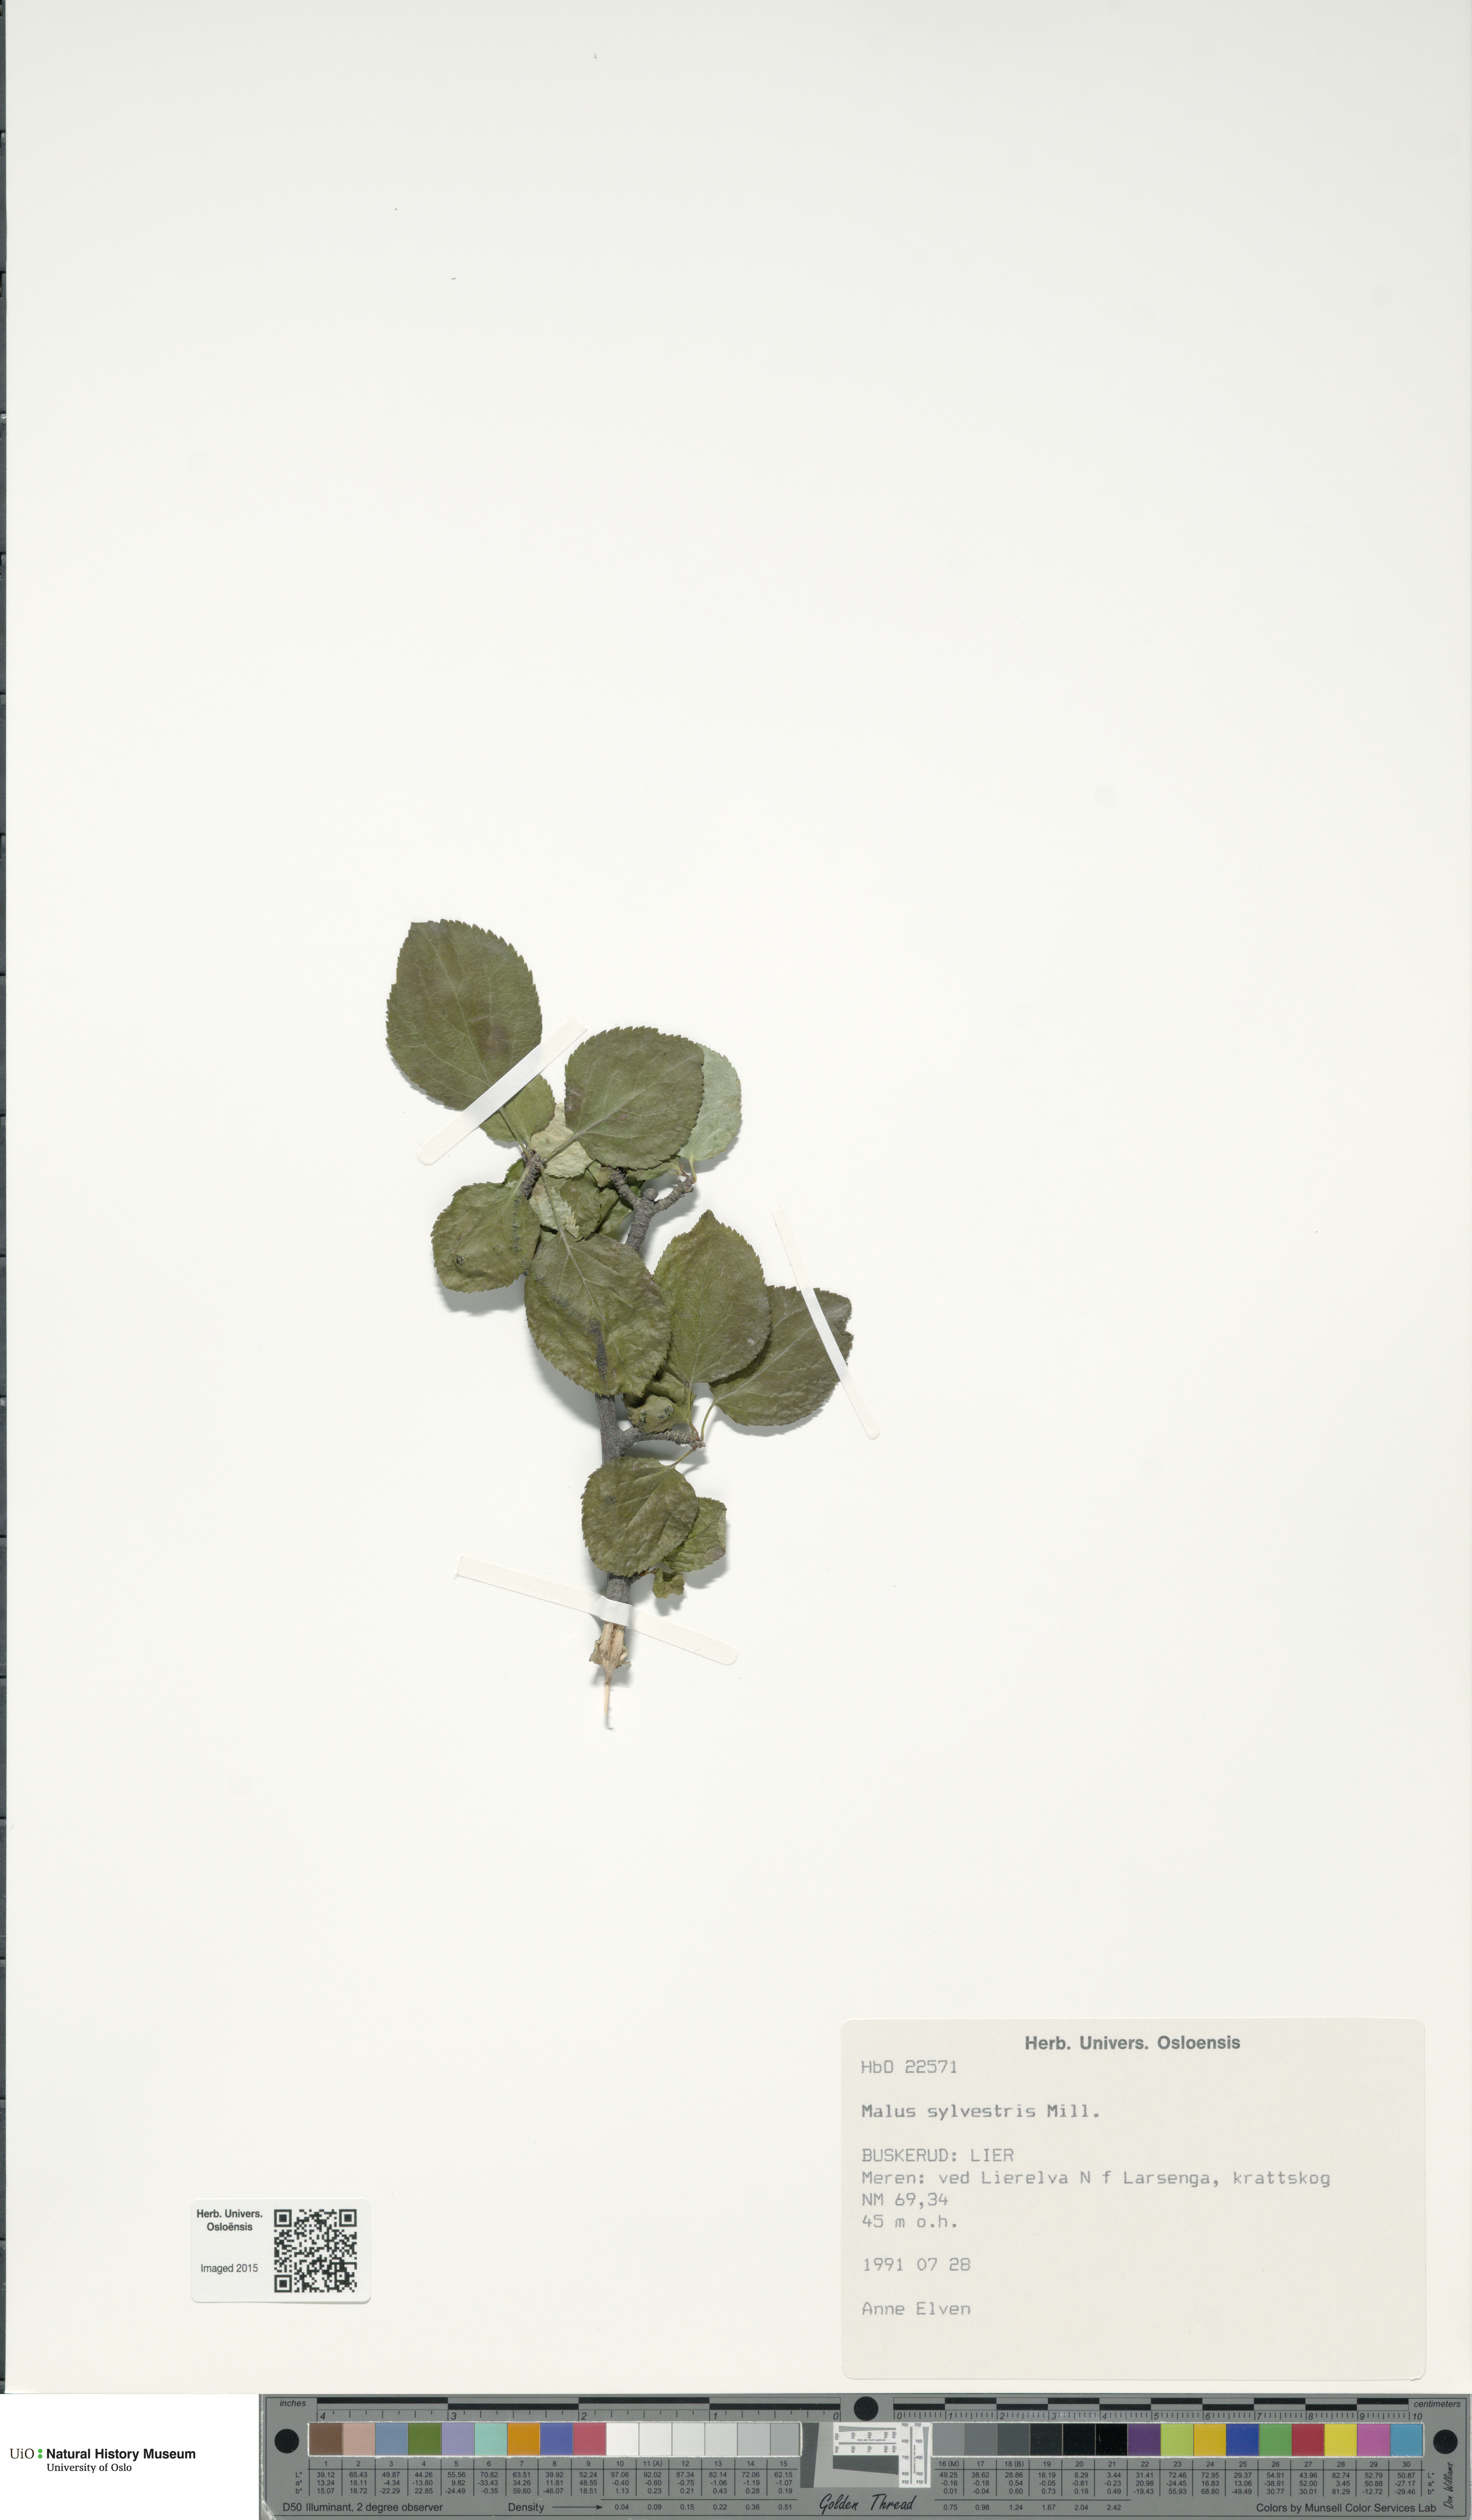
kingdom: Plantae
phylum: Tracheophyta
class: Magnoliopsida
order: Rosales
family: Rosaceae
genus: Malus
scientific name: Malus sylvestris
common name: Crab apple
